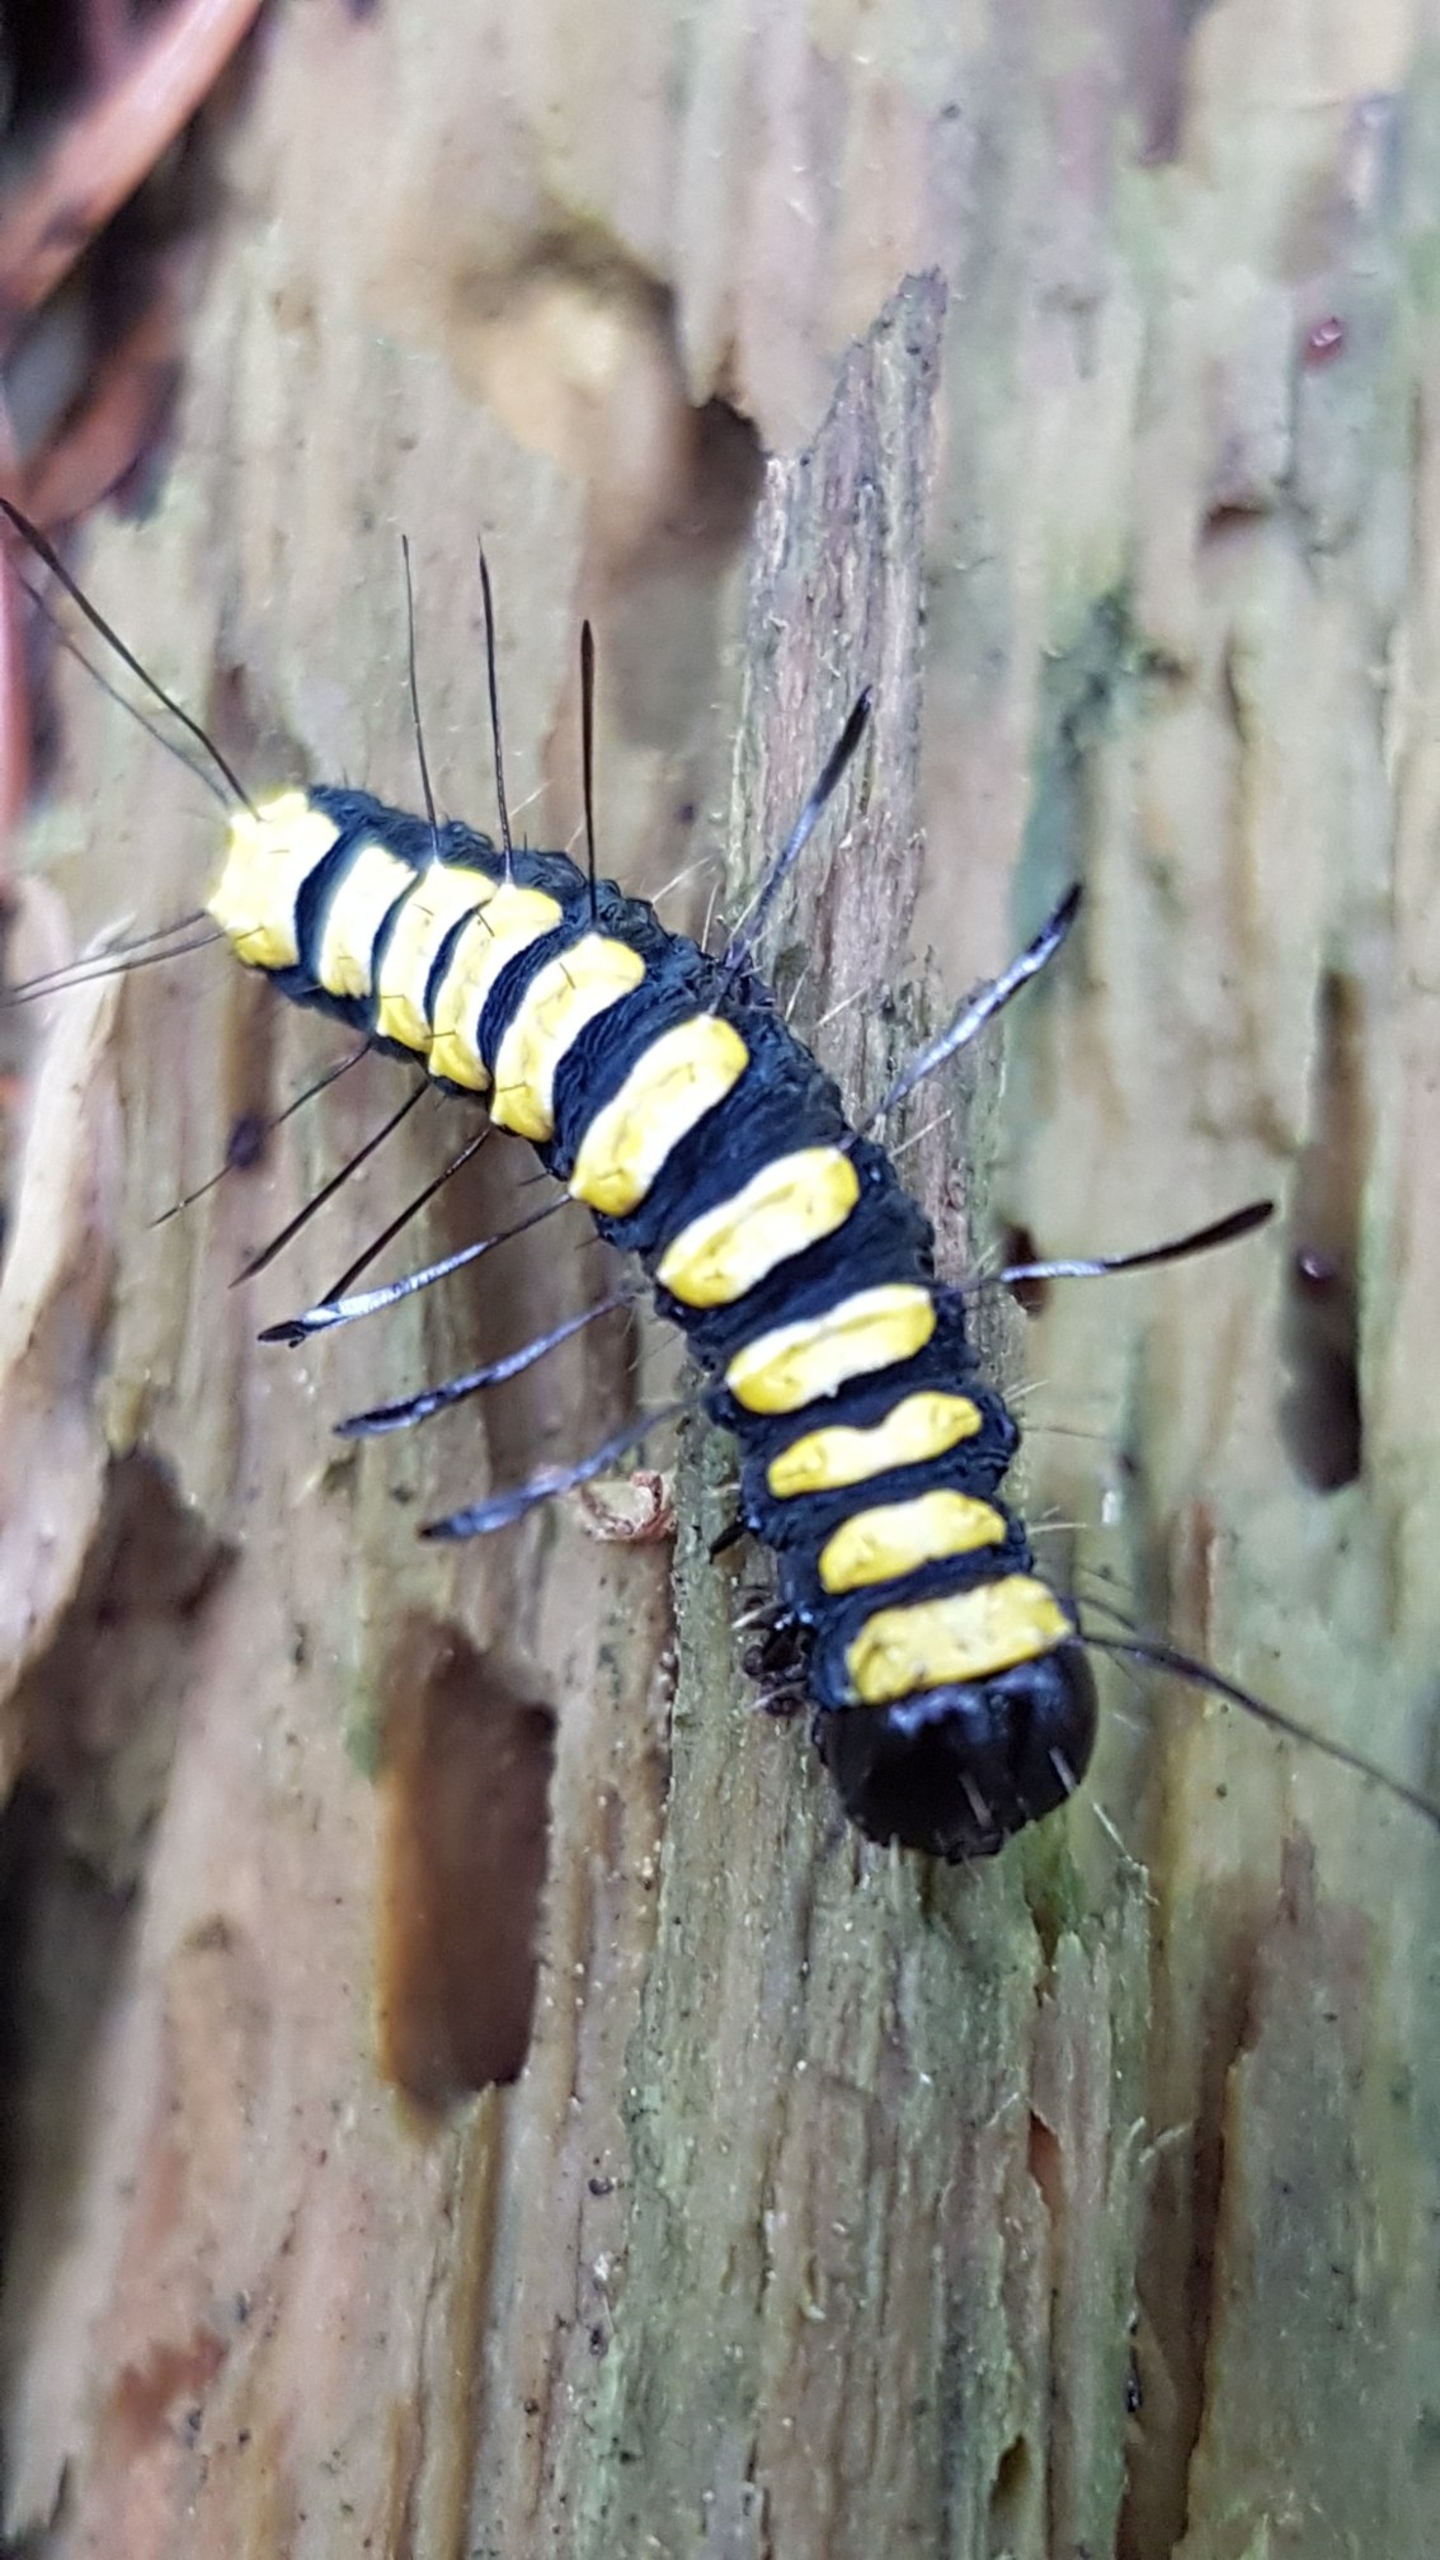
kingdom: Animalia
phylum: Arthropoda
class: Insecta
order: Lepidoptera
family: Noctuidae
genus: Acronicta
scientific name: Acronicta alni
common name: Kølleugle
